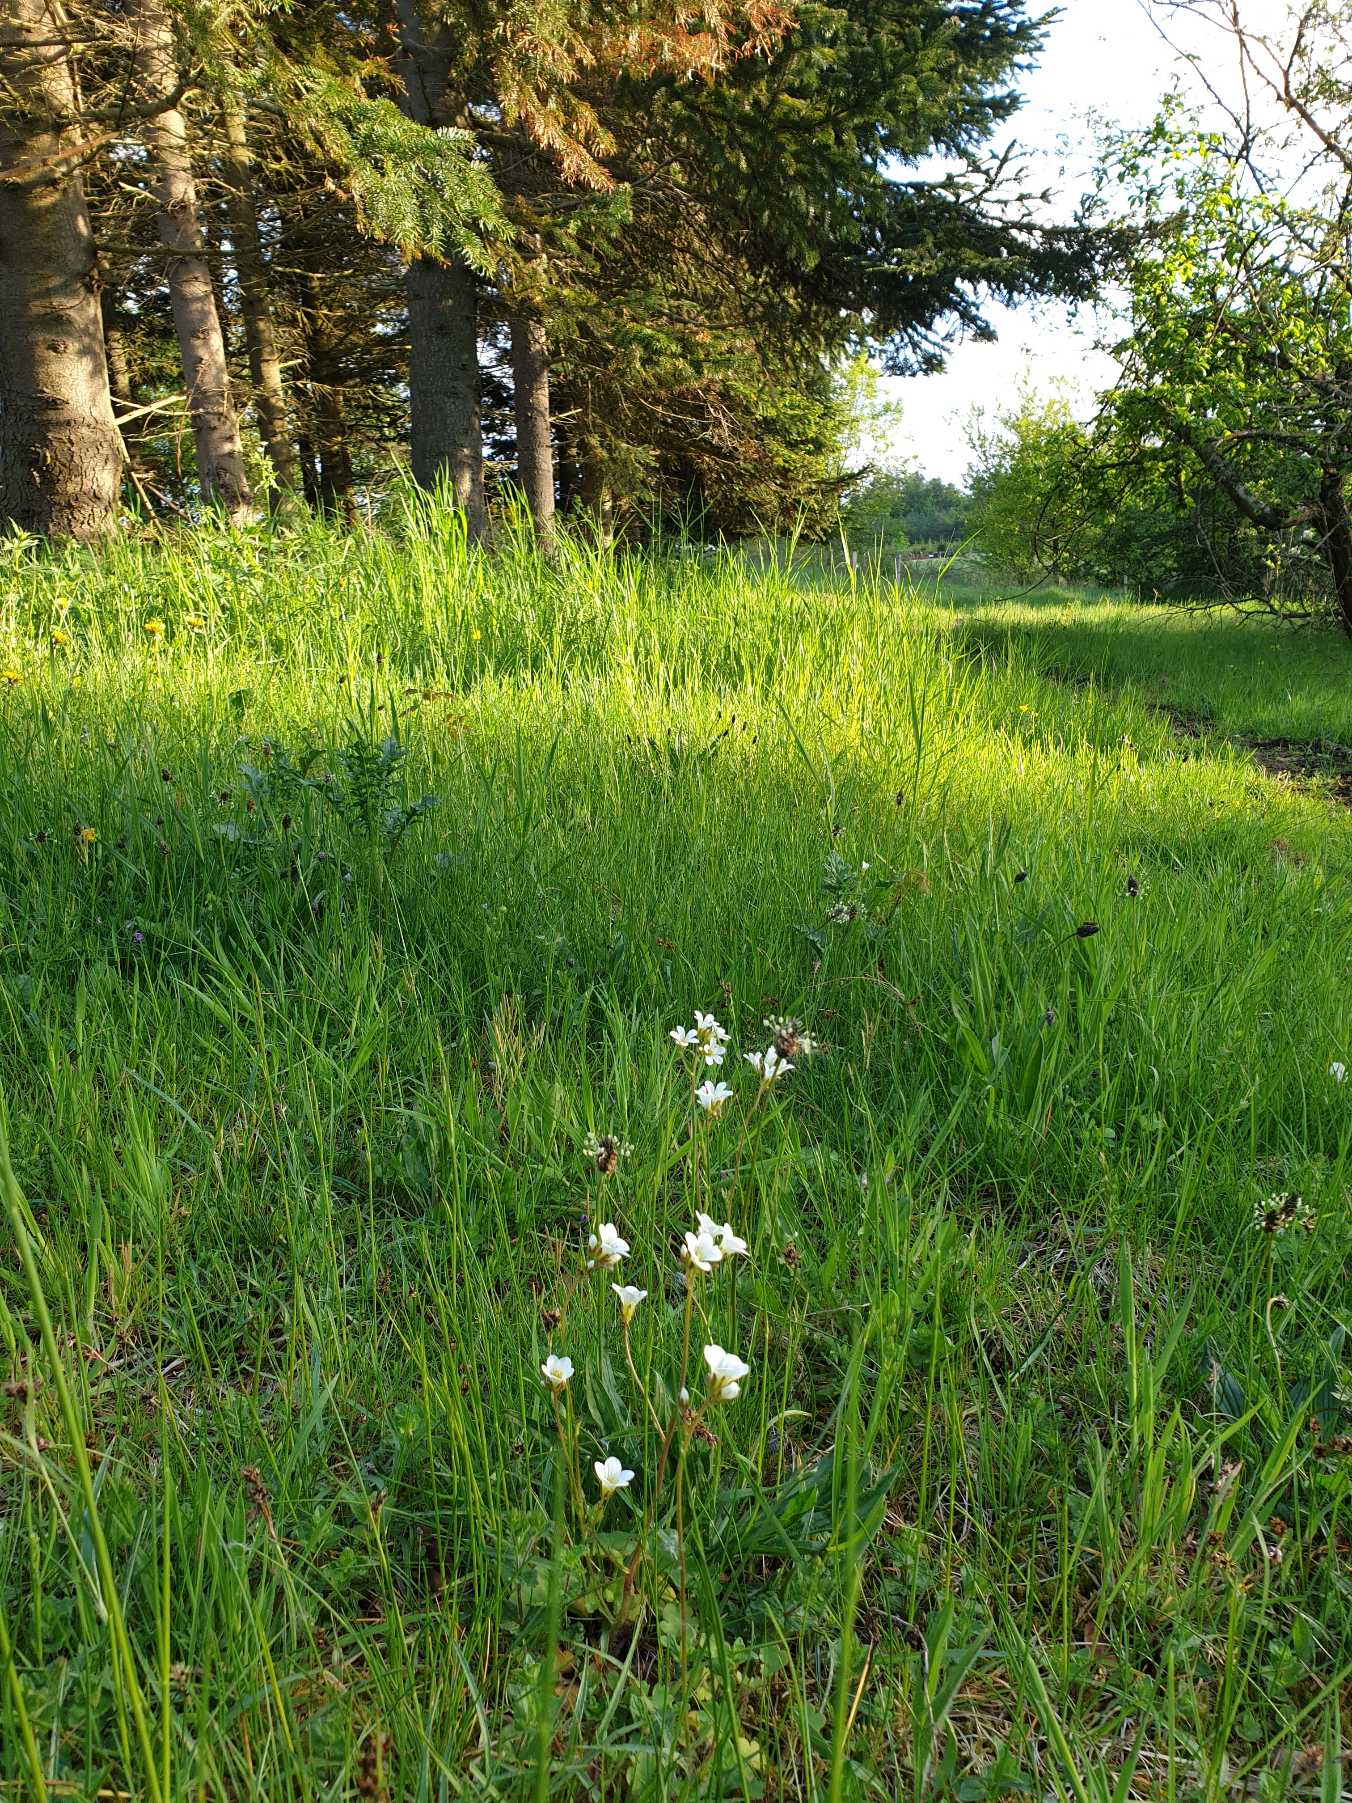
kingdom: Plantae
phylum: Tracheophyta
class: Magnoliopsida
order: Saxifragales
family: Saxifragaceae
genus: Saxifraga
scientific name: Saxifraga granulata
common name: Kornet stenbræk
